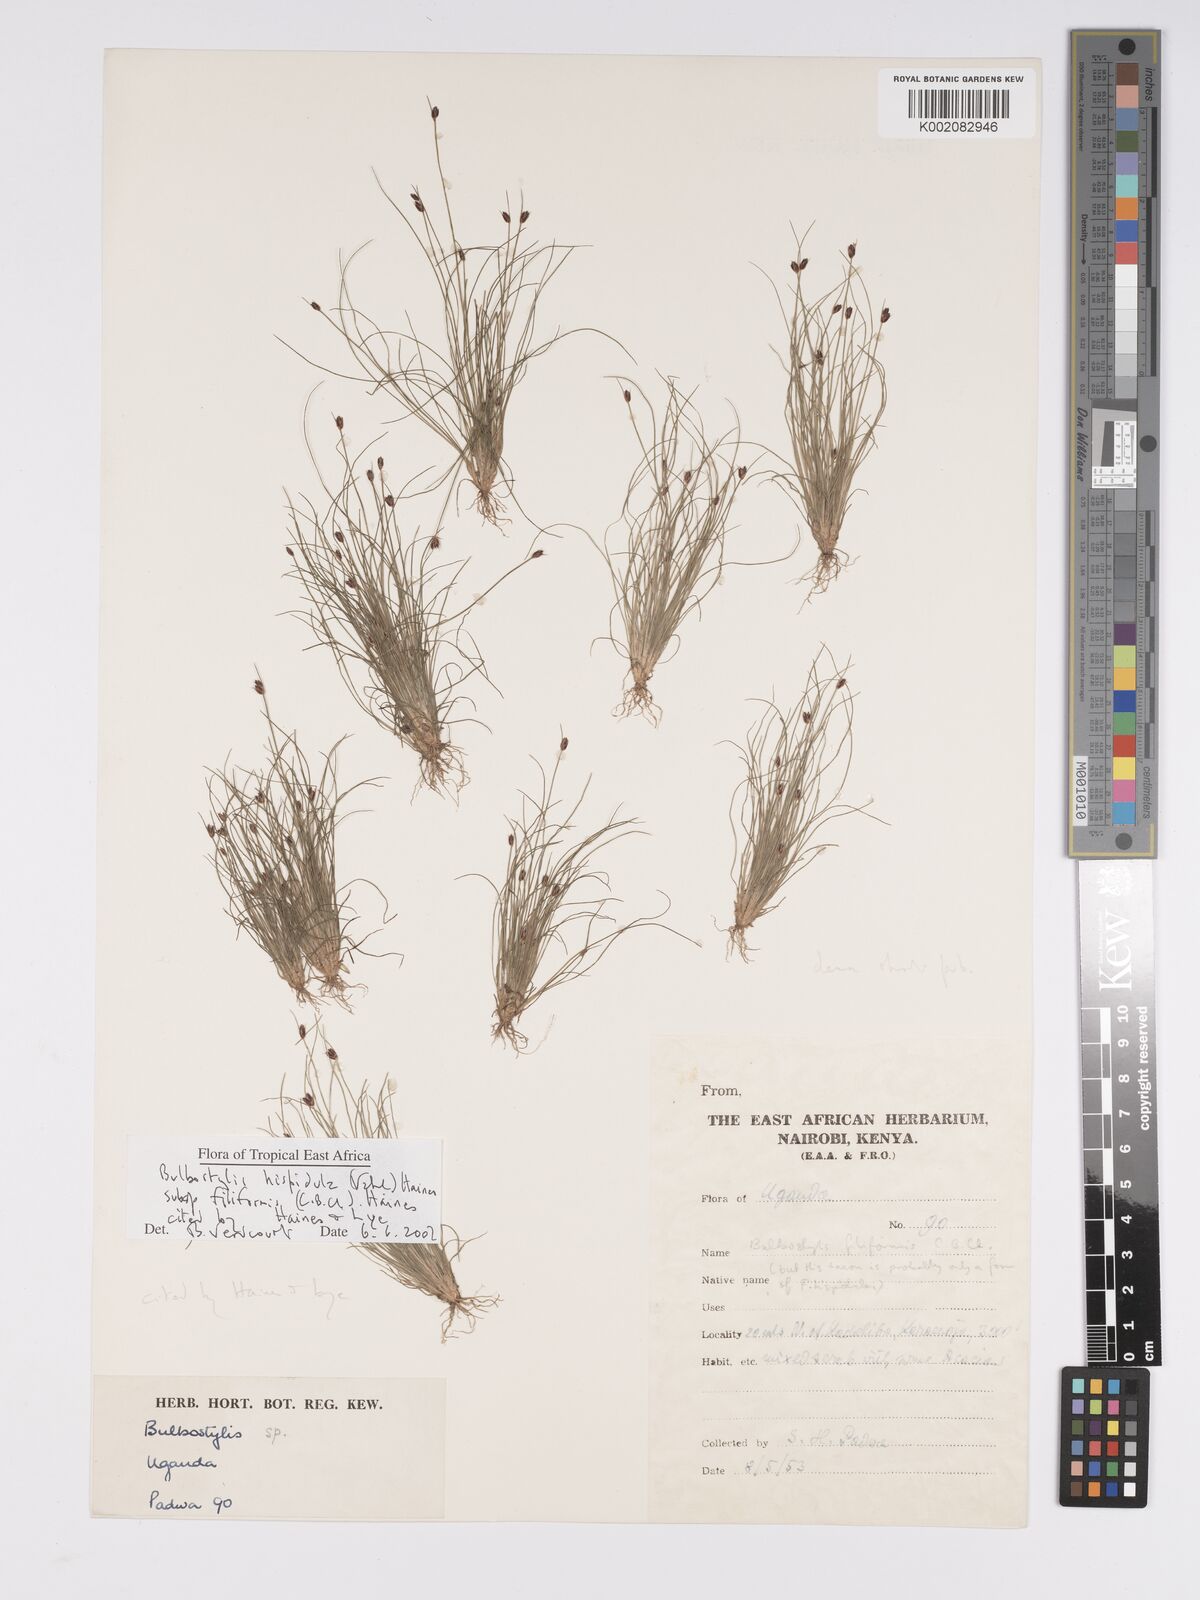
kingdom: Plantae
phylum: Tracheophyta
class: Liliopsida
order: Poales
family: Cyperaceae
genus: Bulbostylis
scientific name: Bulbostylis hispidula
